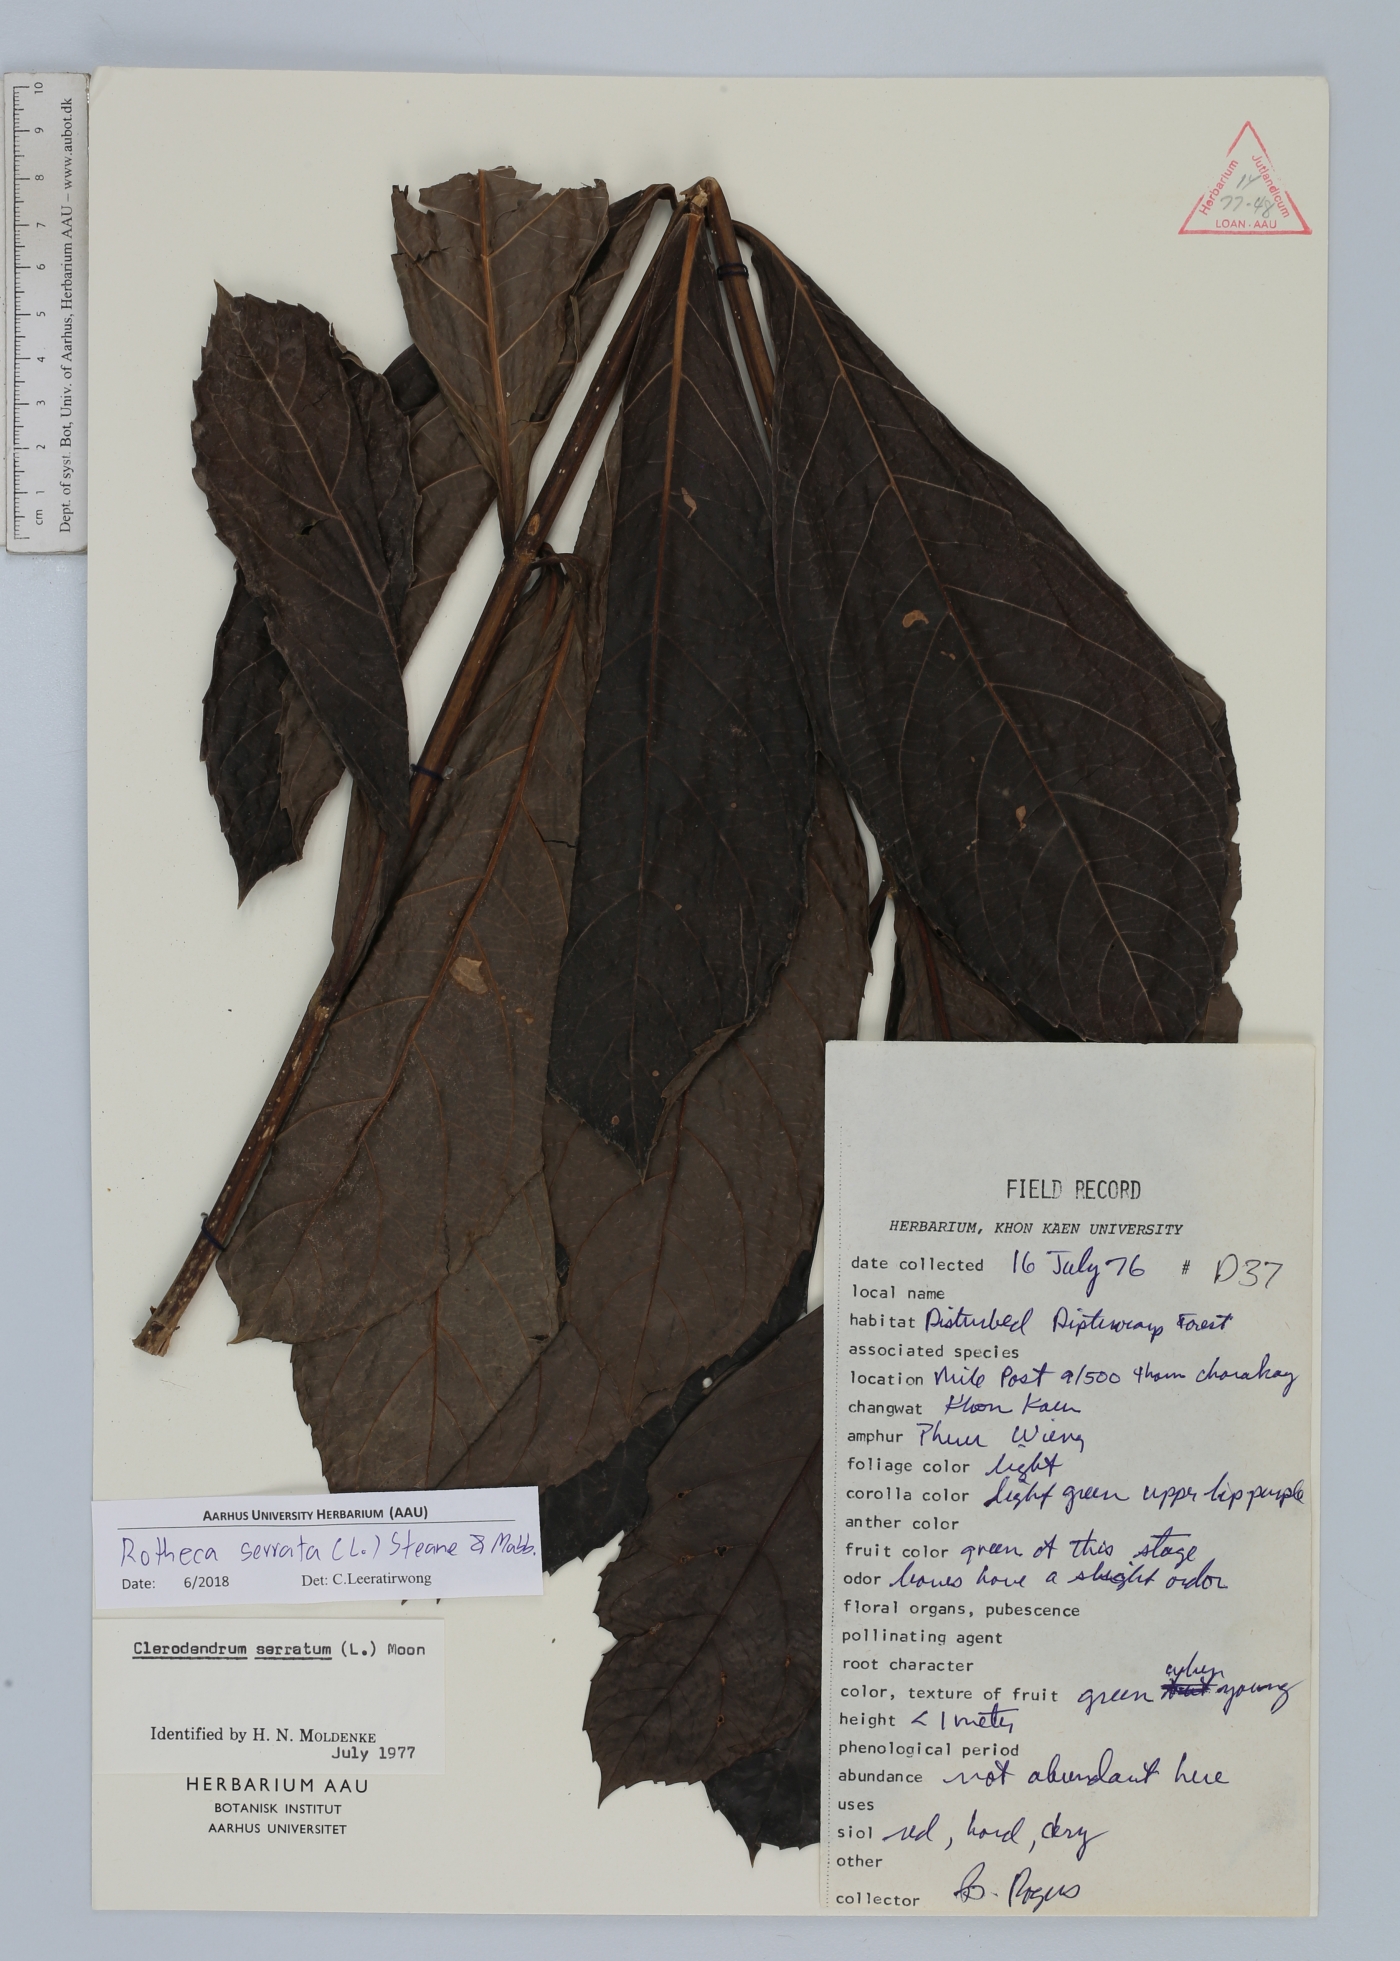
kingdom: Plantae
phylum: Tracheophyta
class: Magnoliopsida
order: Lamiales
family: Lamiaceae
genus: Rotheca
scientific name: Rotheca serrata
